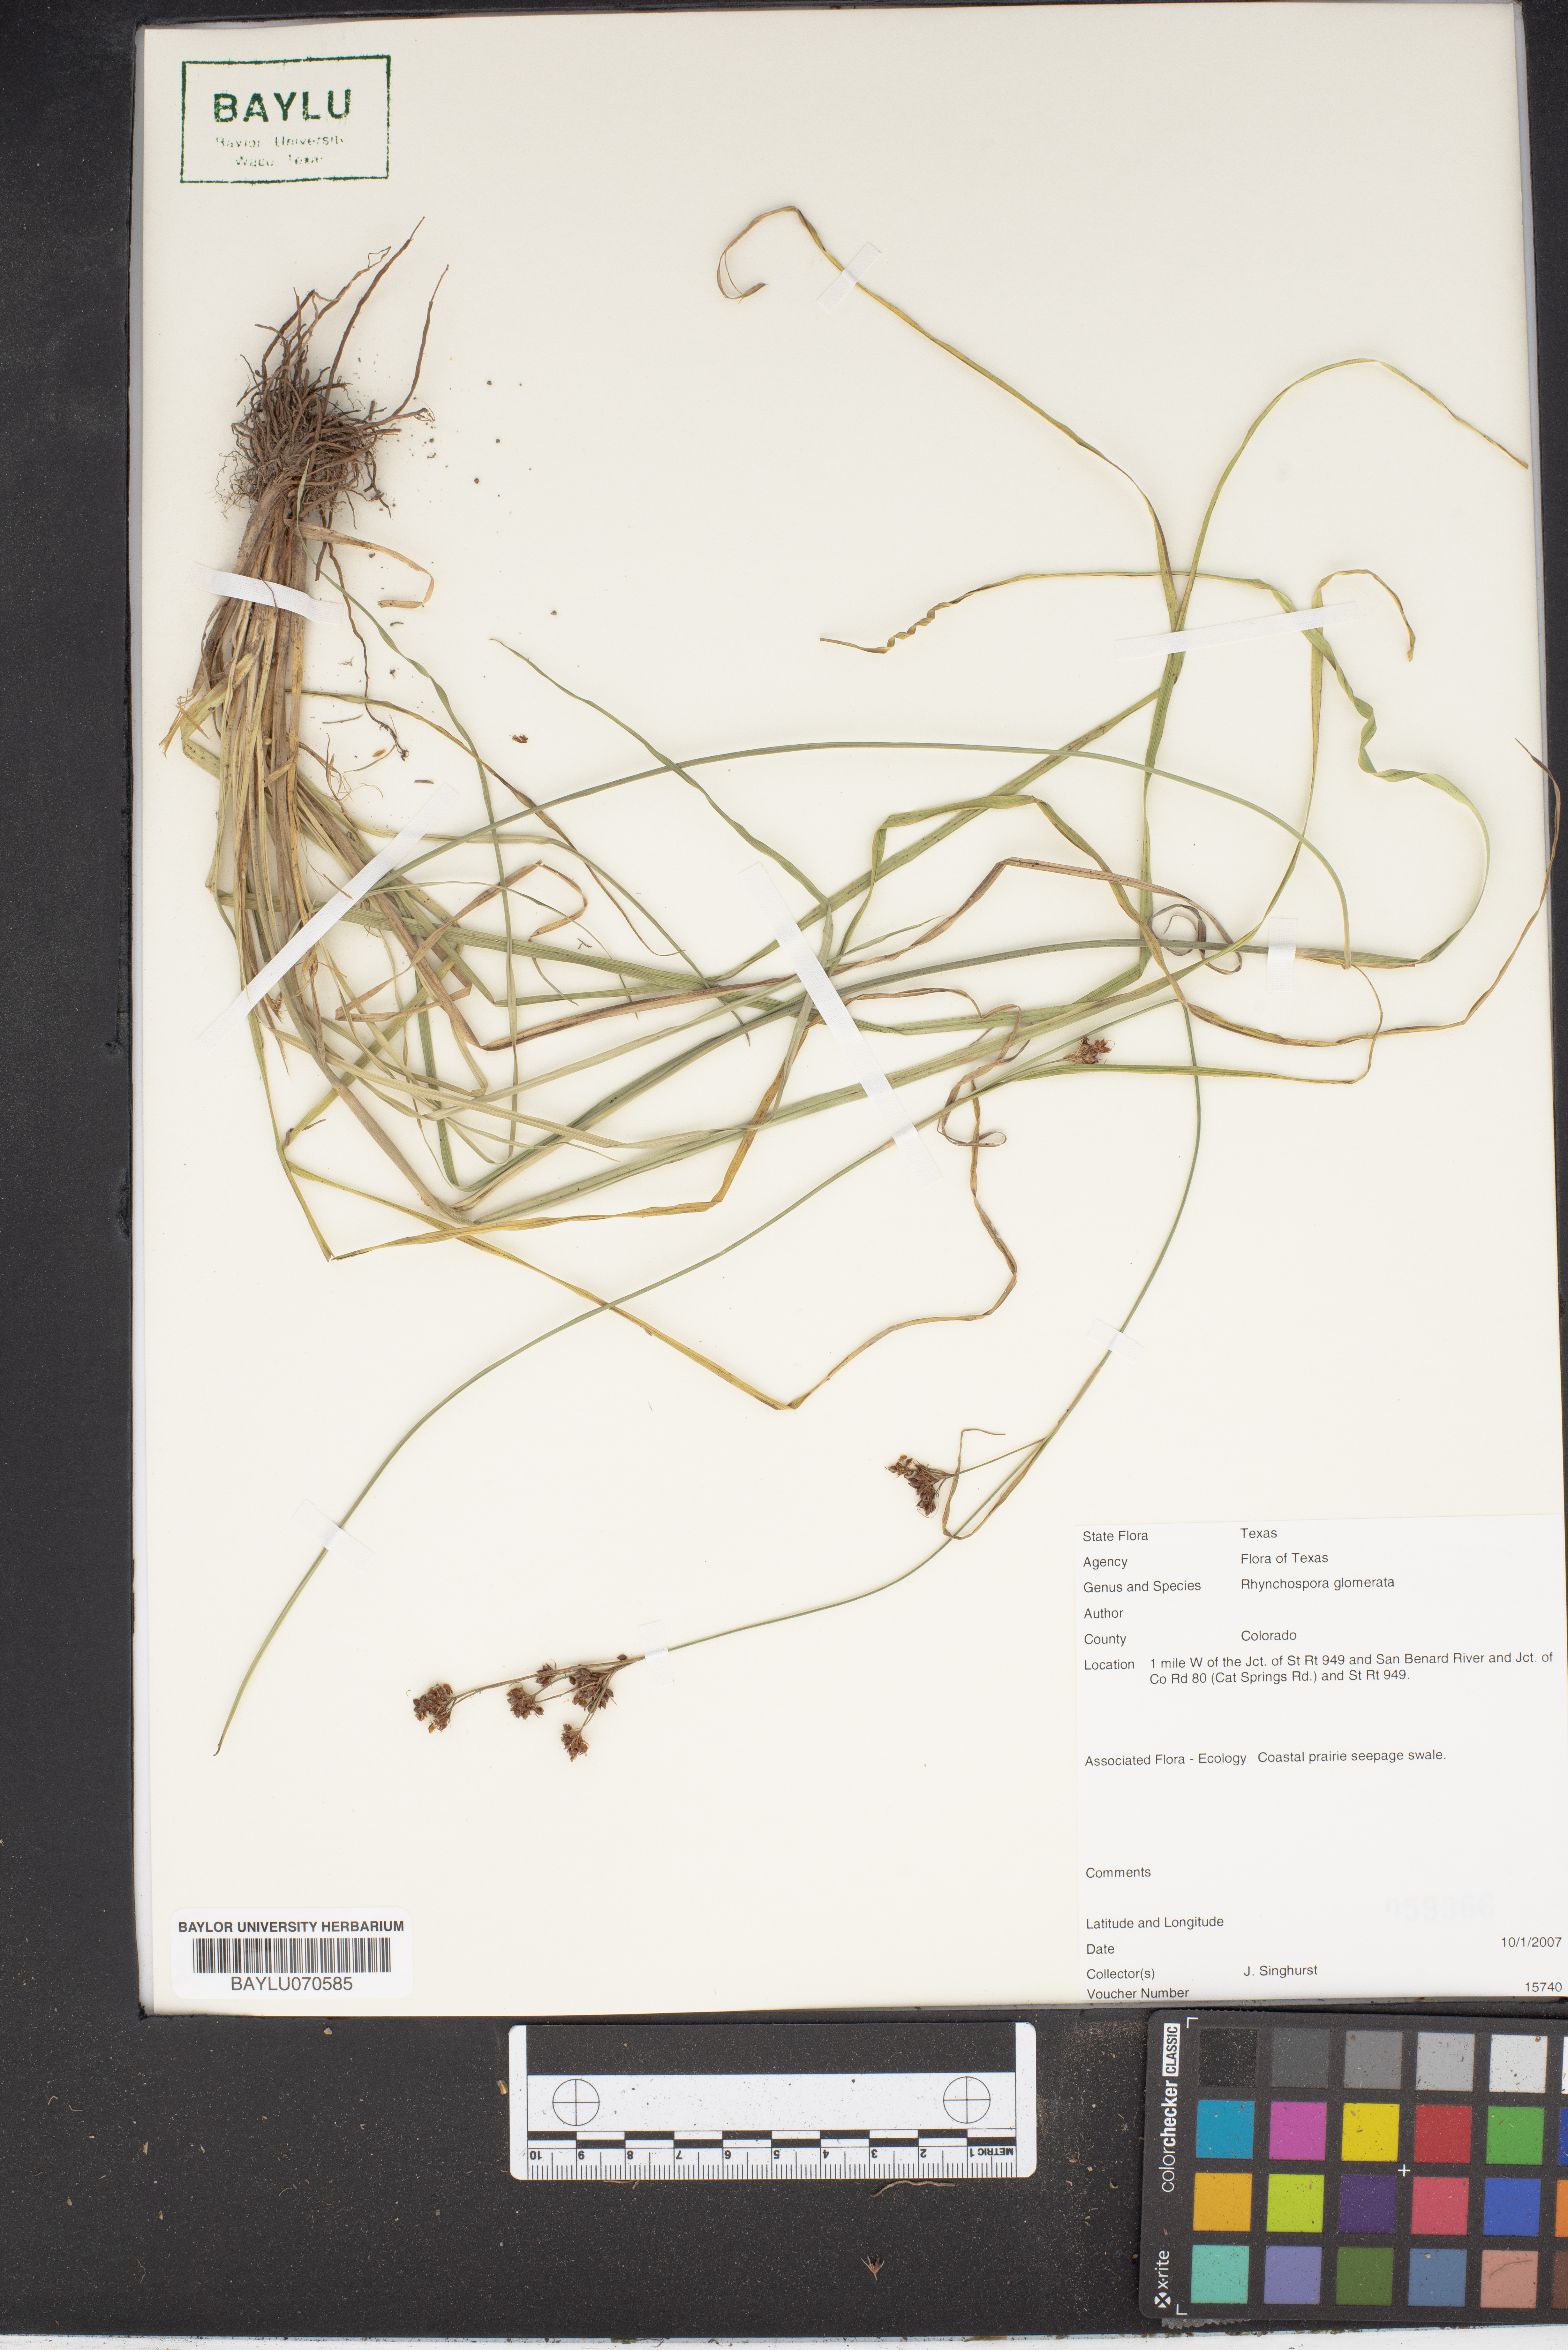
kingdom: Plantae
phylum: Tracheophyta
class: Liliopsida
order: Poales
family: Cyperaceae
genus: Rhynchospora
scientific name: Rhynchospora glomerata
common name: Cluster beak sedge
